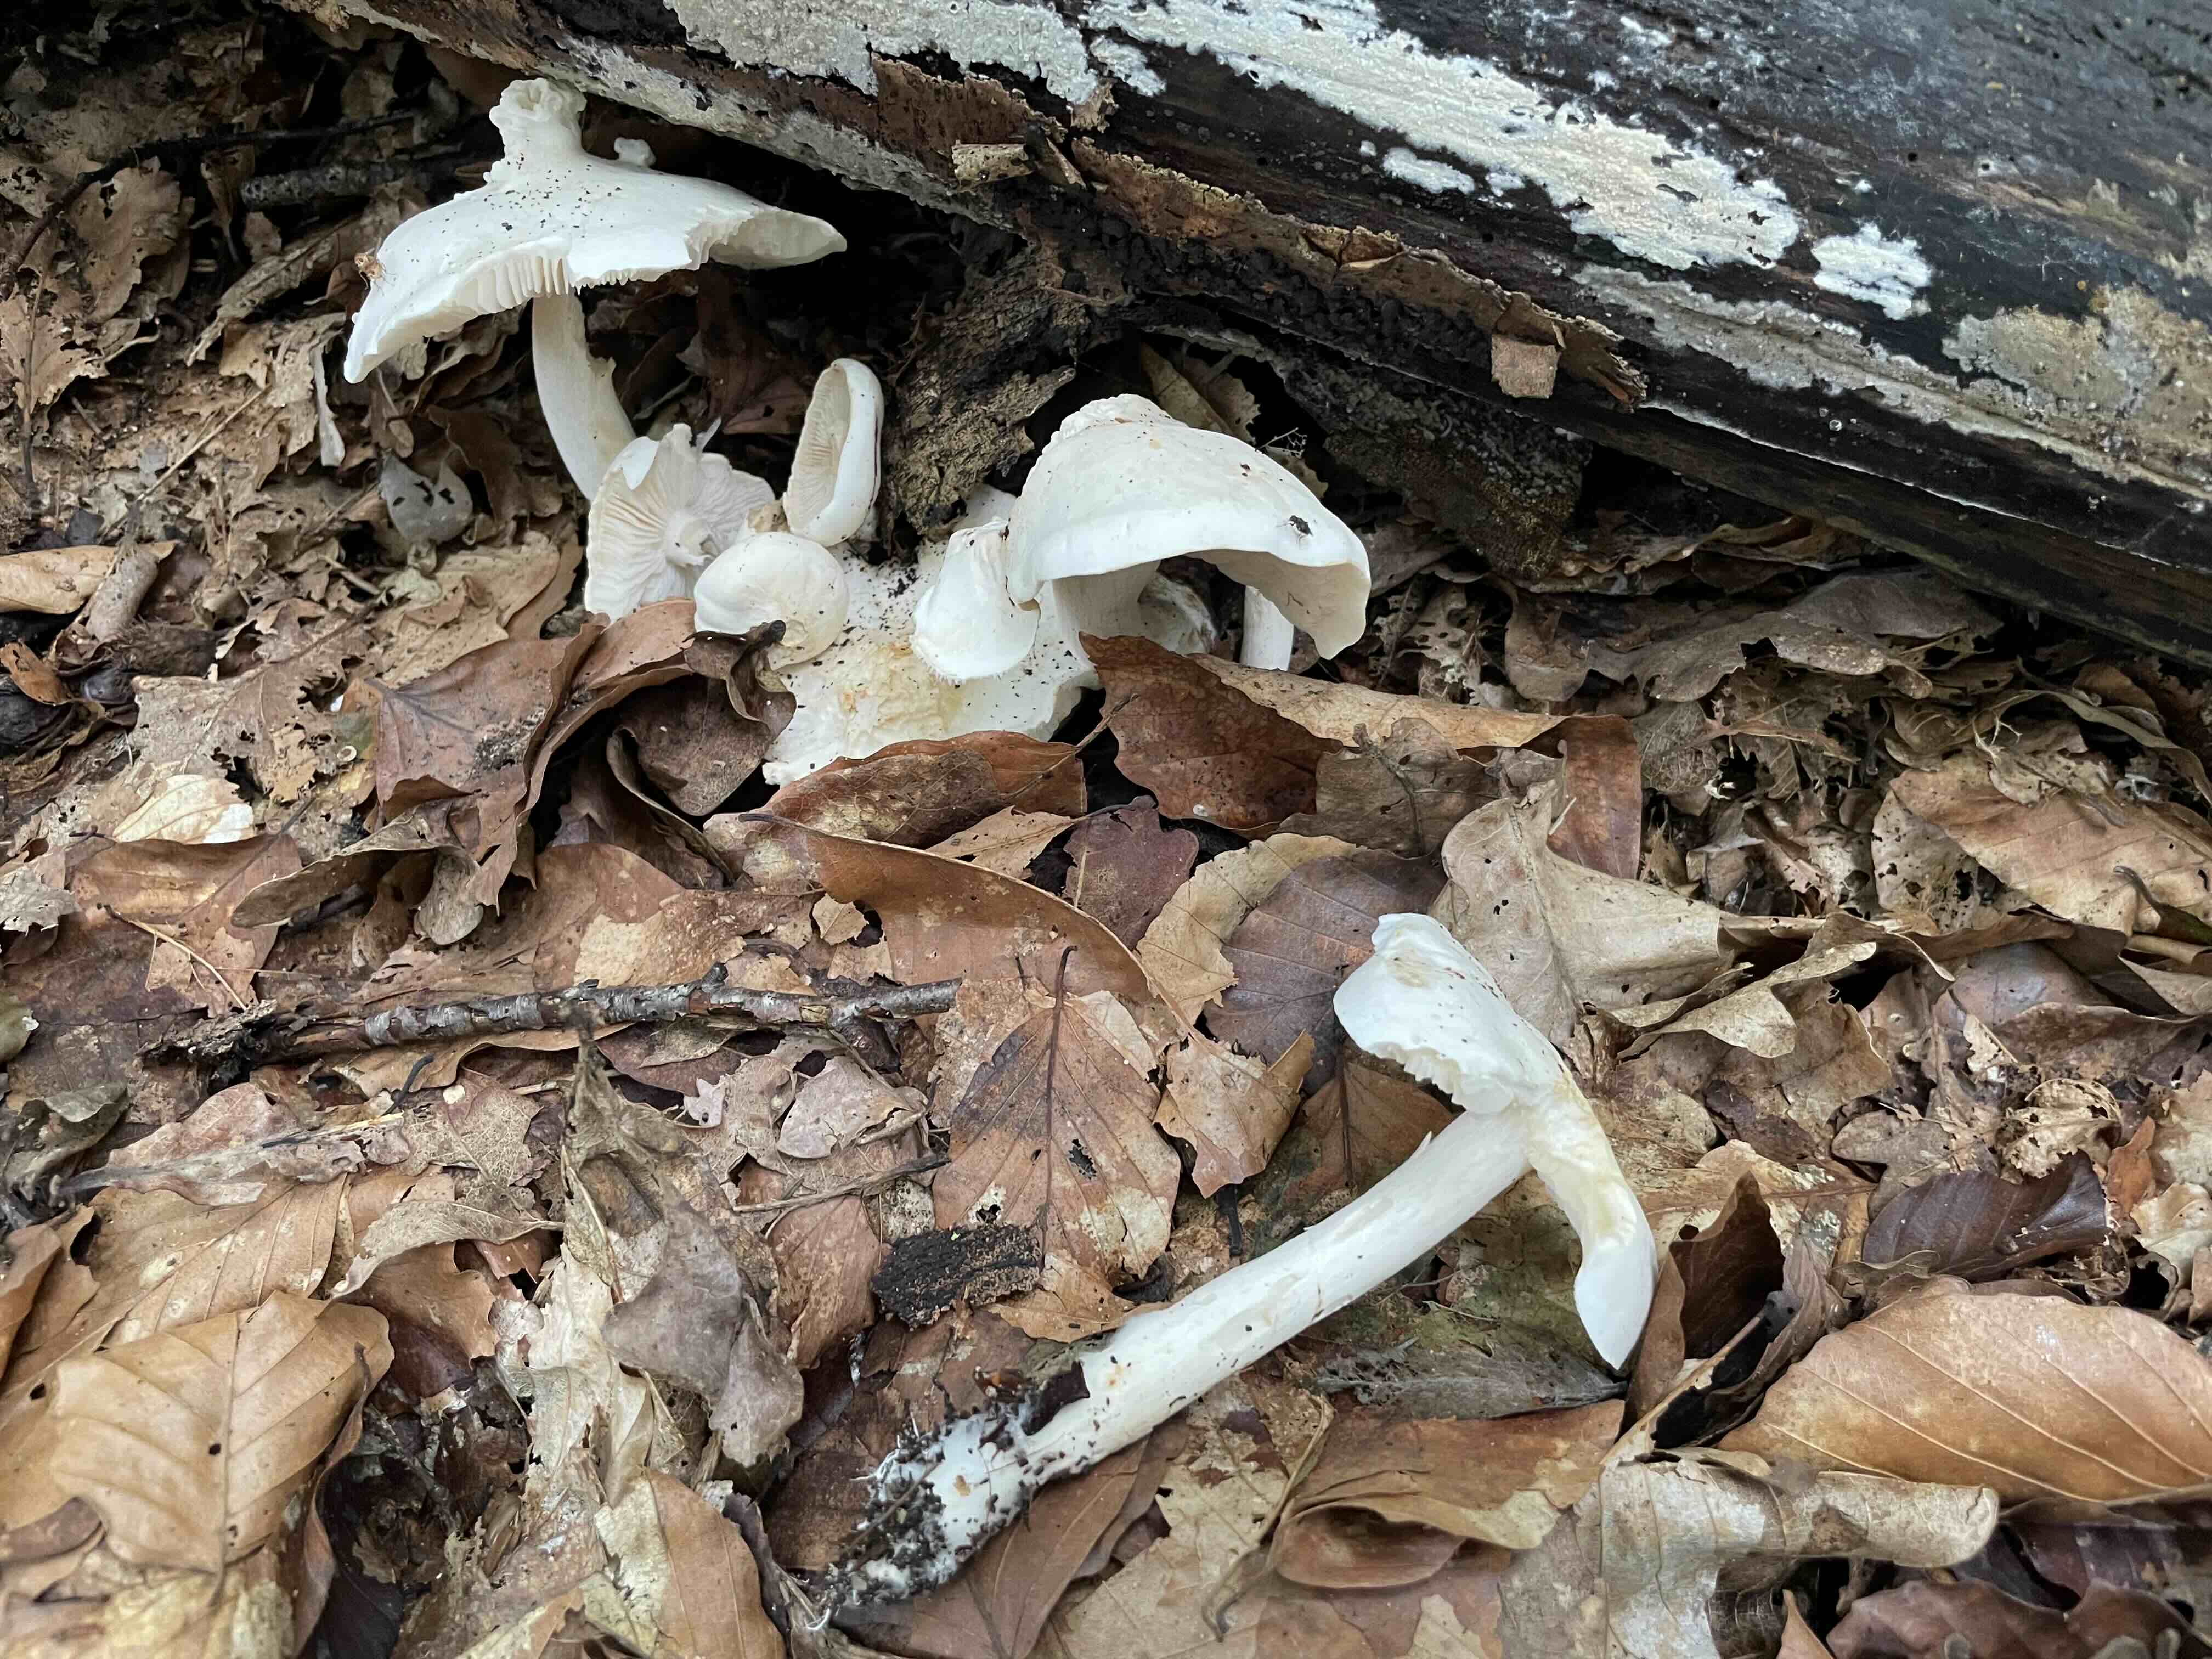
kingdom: Fungi
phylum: Basidiomycota
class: Agaricomycetes
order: Agaricales
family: Tricholomataceae
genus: Tricholoma
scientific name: Tricholoma album
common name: honning-ridderhat
